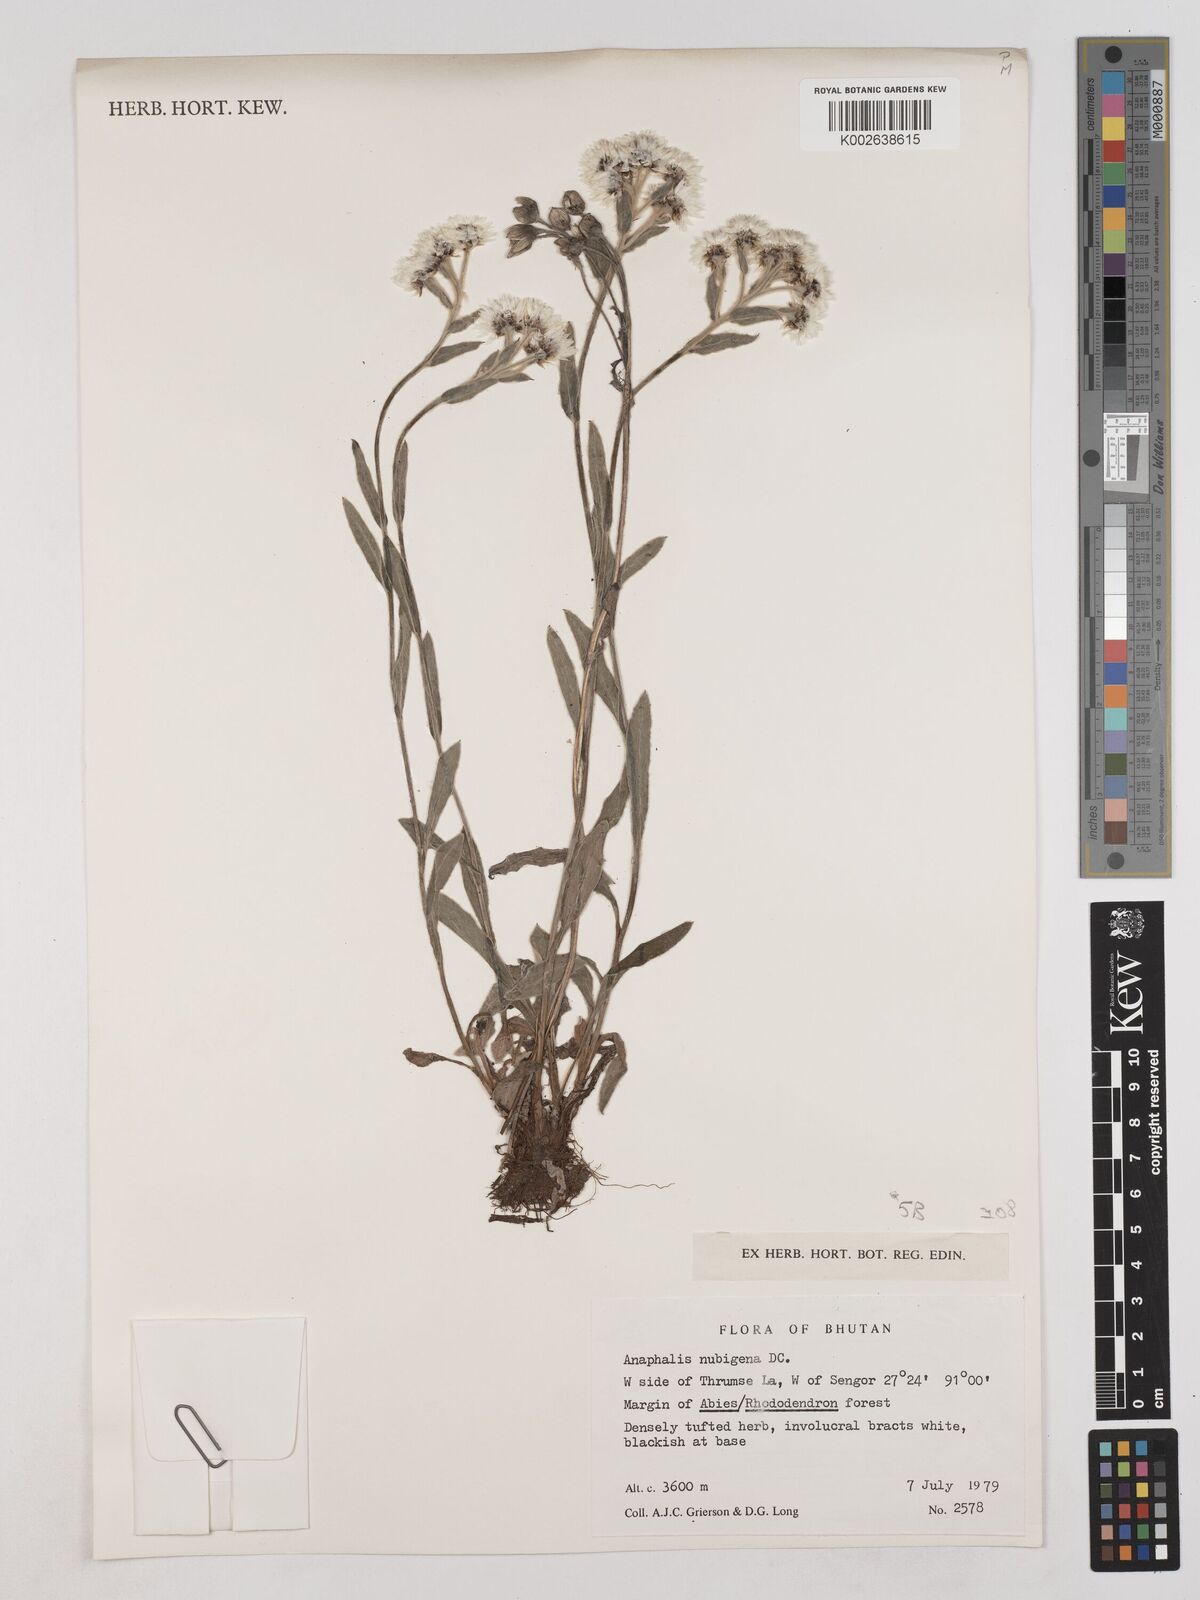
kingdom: Plantae
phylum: Tracheophyta
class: Magnoliopsida
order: Asterales
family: Asteraceae
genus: Anaphalis
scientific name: Anaphalis nepalensis
